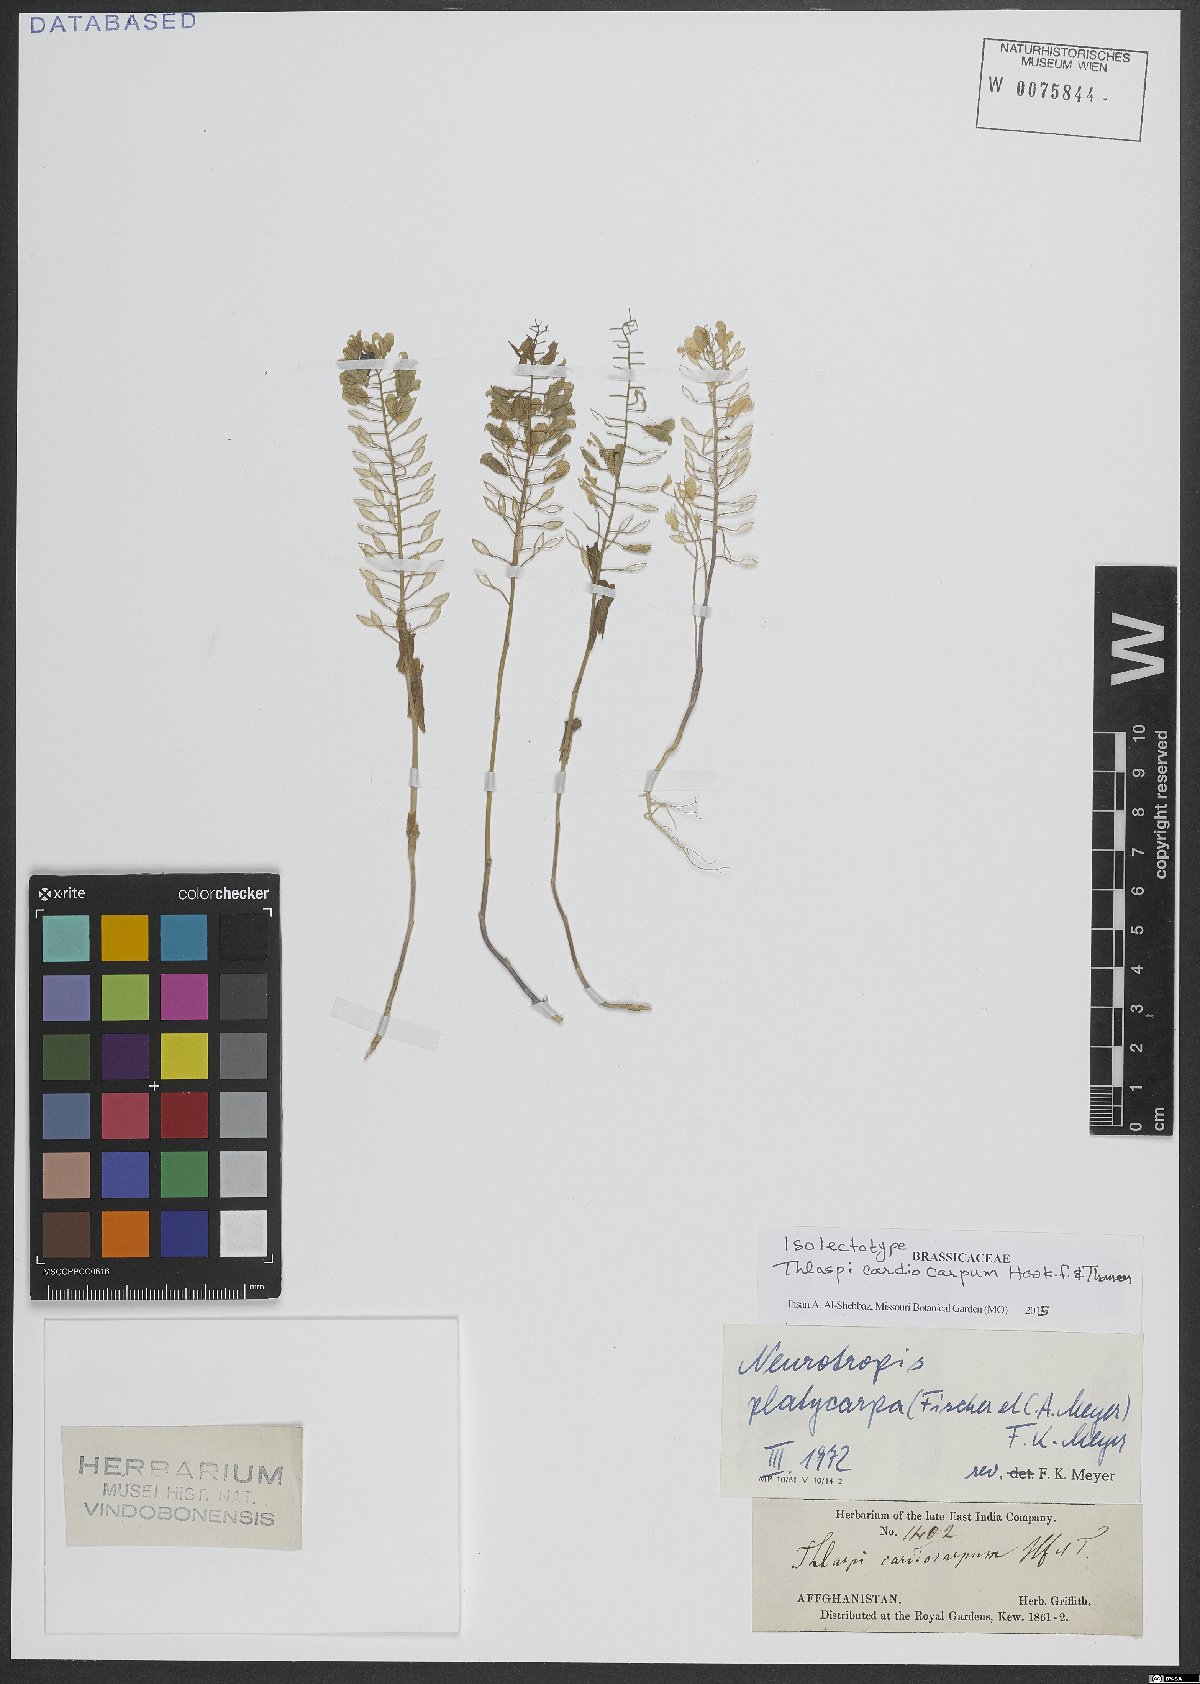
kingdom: Plantae
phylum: Tracheophyta
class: Magnoliopsida
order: Brassicales
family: Brassicaceae
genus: Noccaea
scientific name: Noccaea platycarpa
